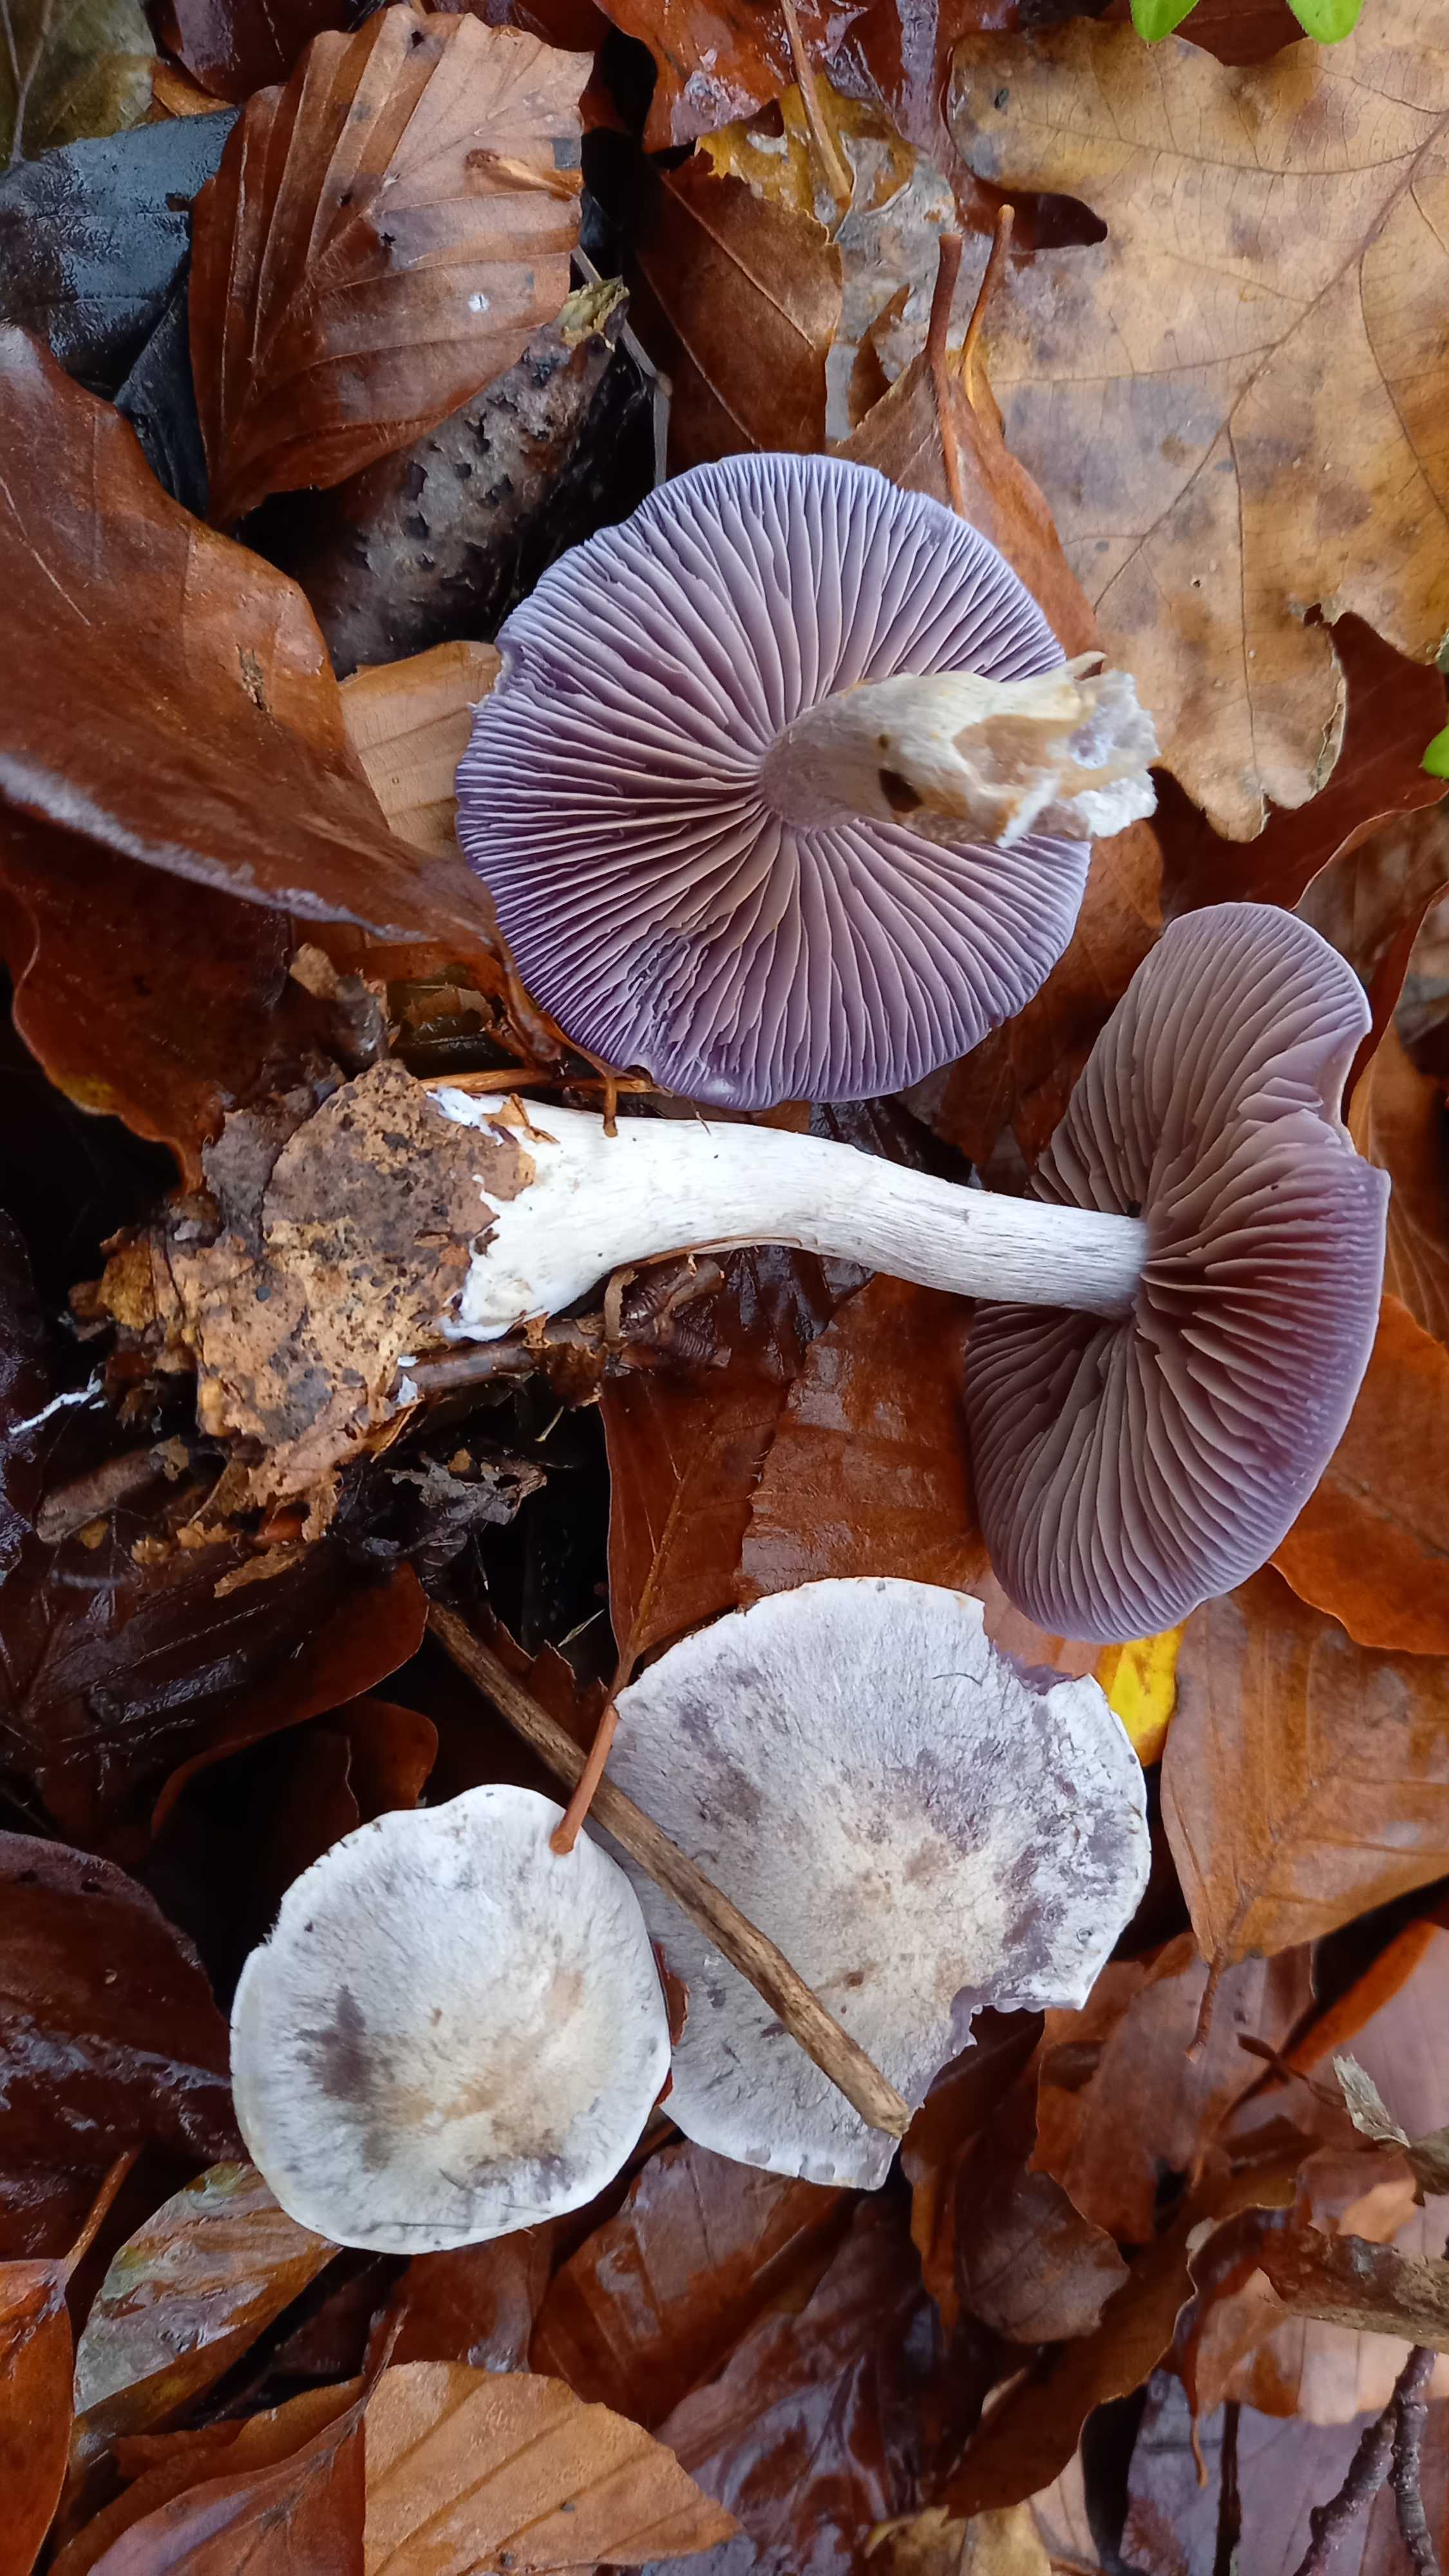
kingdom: Fungi
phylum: Basidiomycota
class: Agaricomycetes
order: Agaricales
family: Cortinariaceae
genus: Cortinarius
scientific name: Cortinarius
